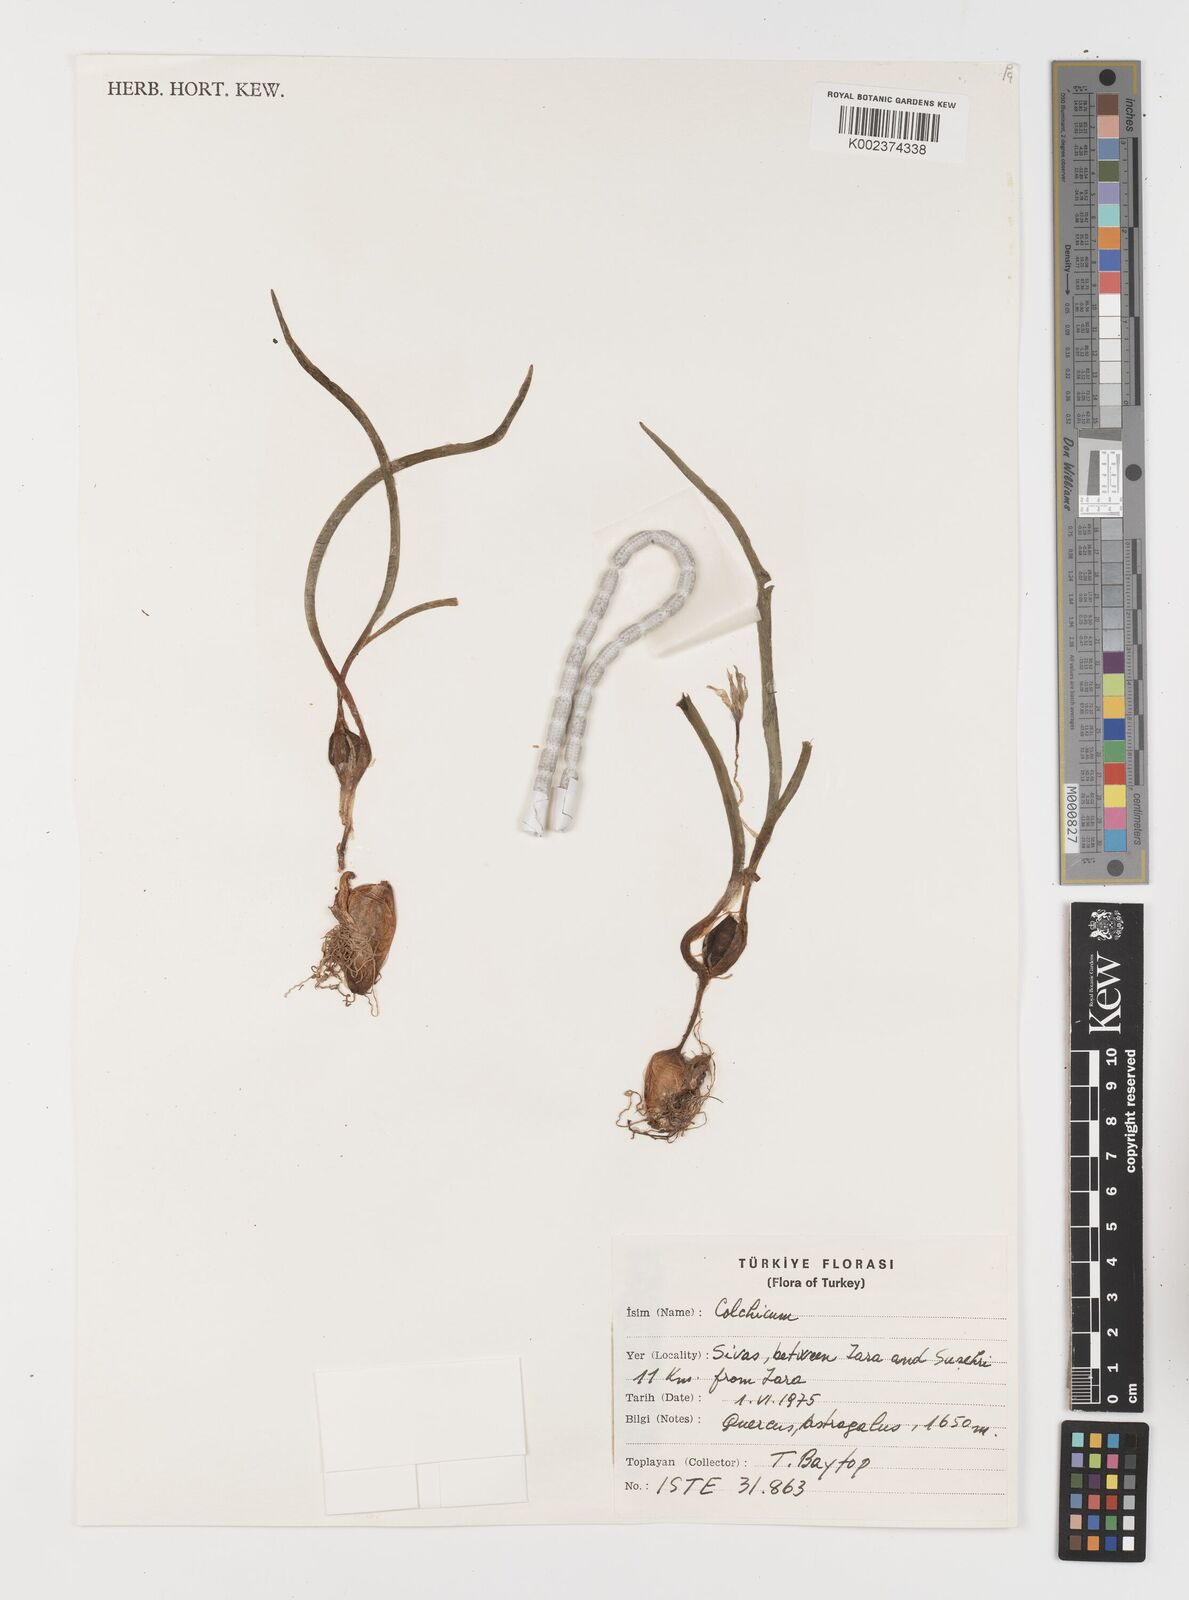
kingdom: Plantae
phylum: Tracheophyta
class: Liliopsida
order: Liliales
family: Colchicaceae
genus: Colchicum
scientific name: Colchicum
